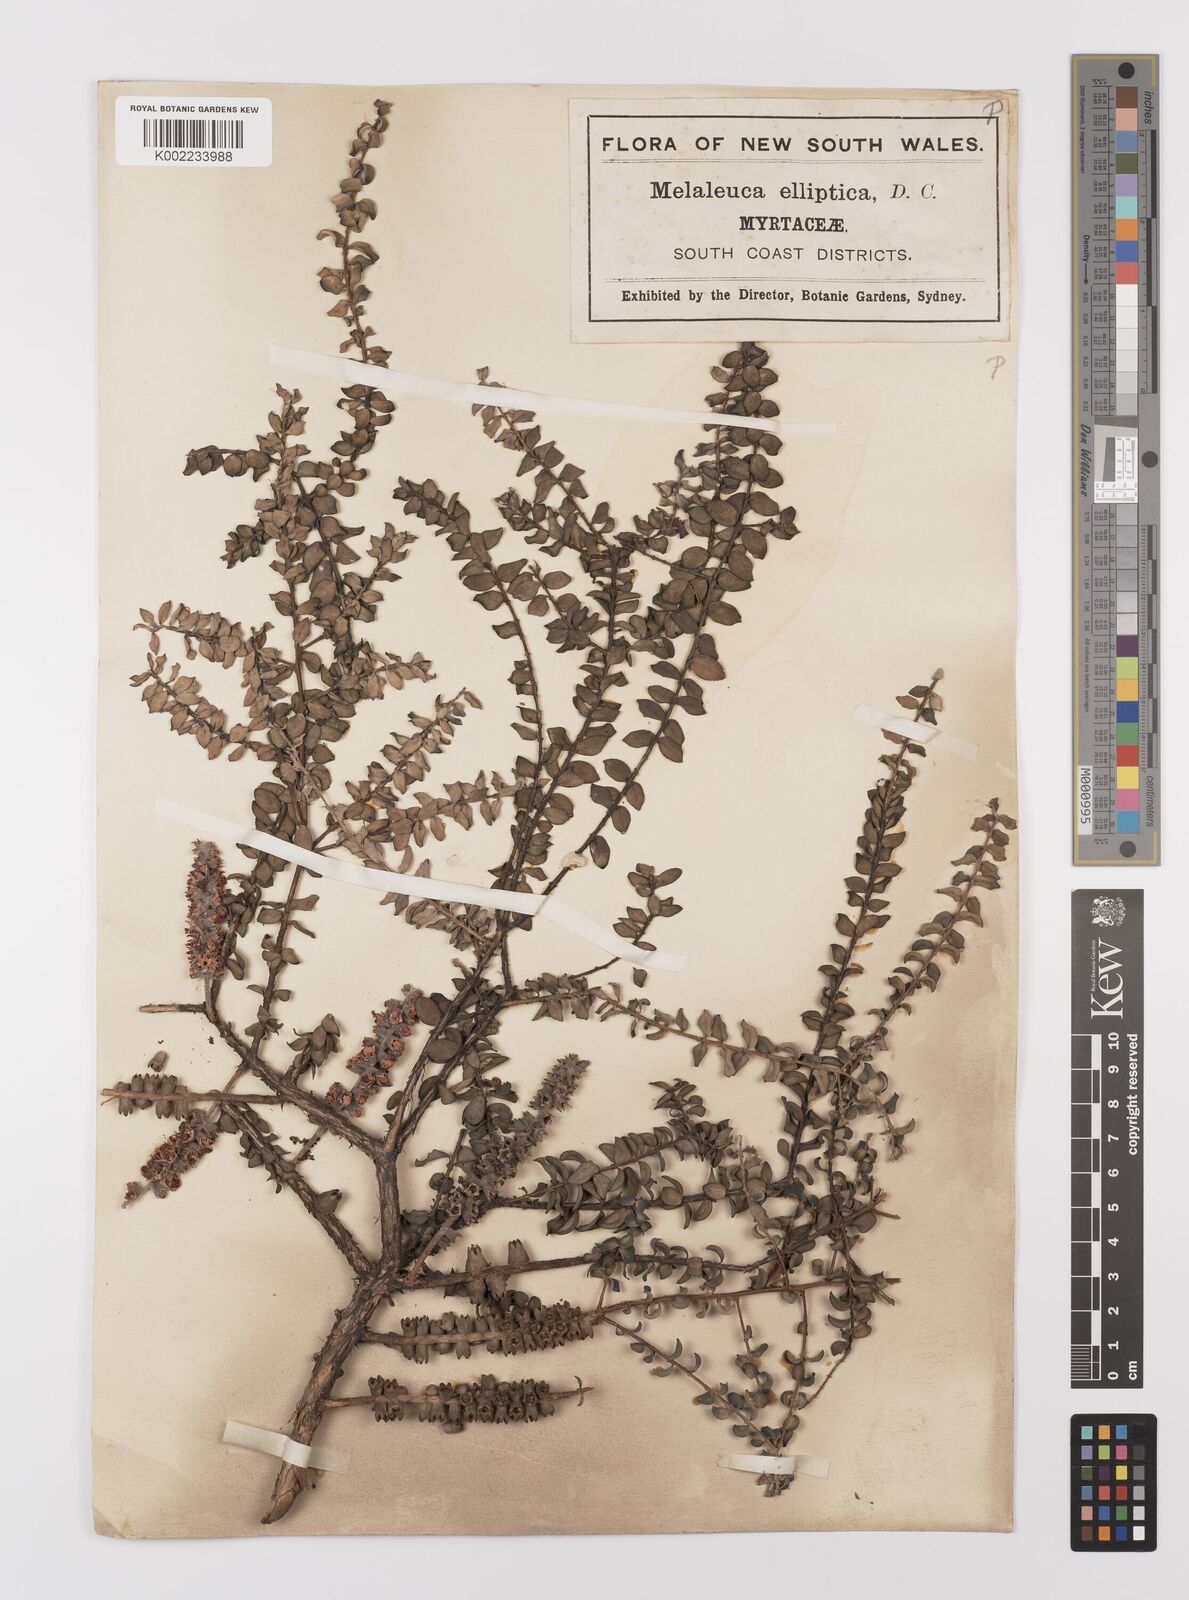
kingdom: Plantae
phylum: Tracheophyta
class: Magnoliopsida
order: Myrtales
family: Myrtaceae
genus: Melaleuca
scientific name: Melaleuca elliptica
